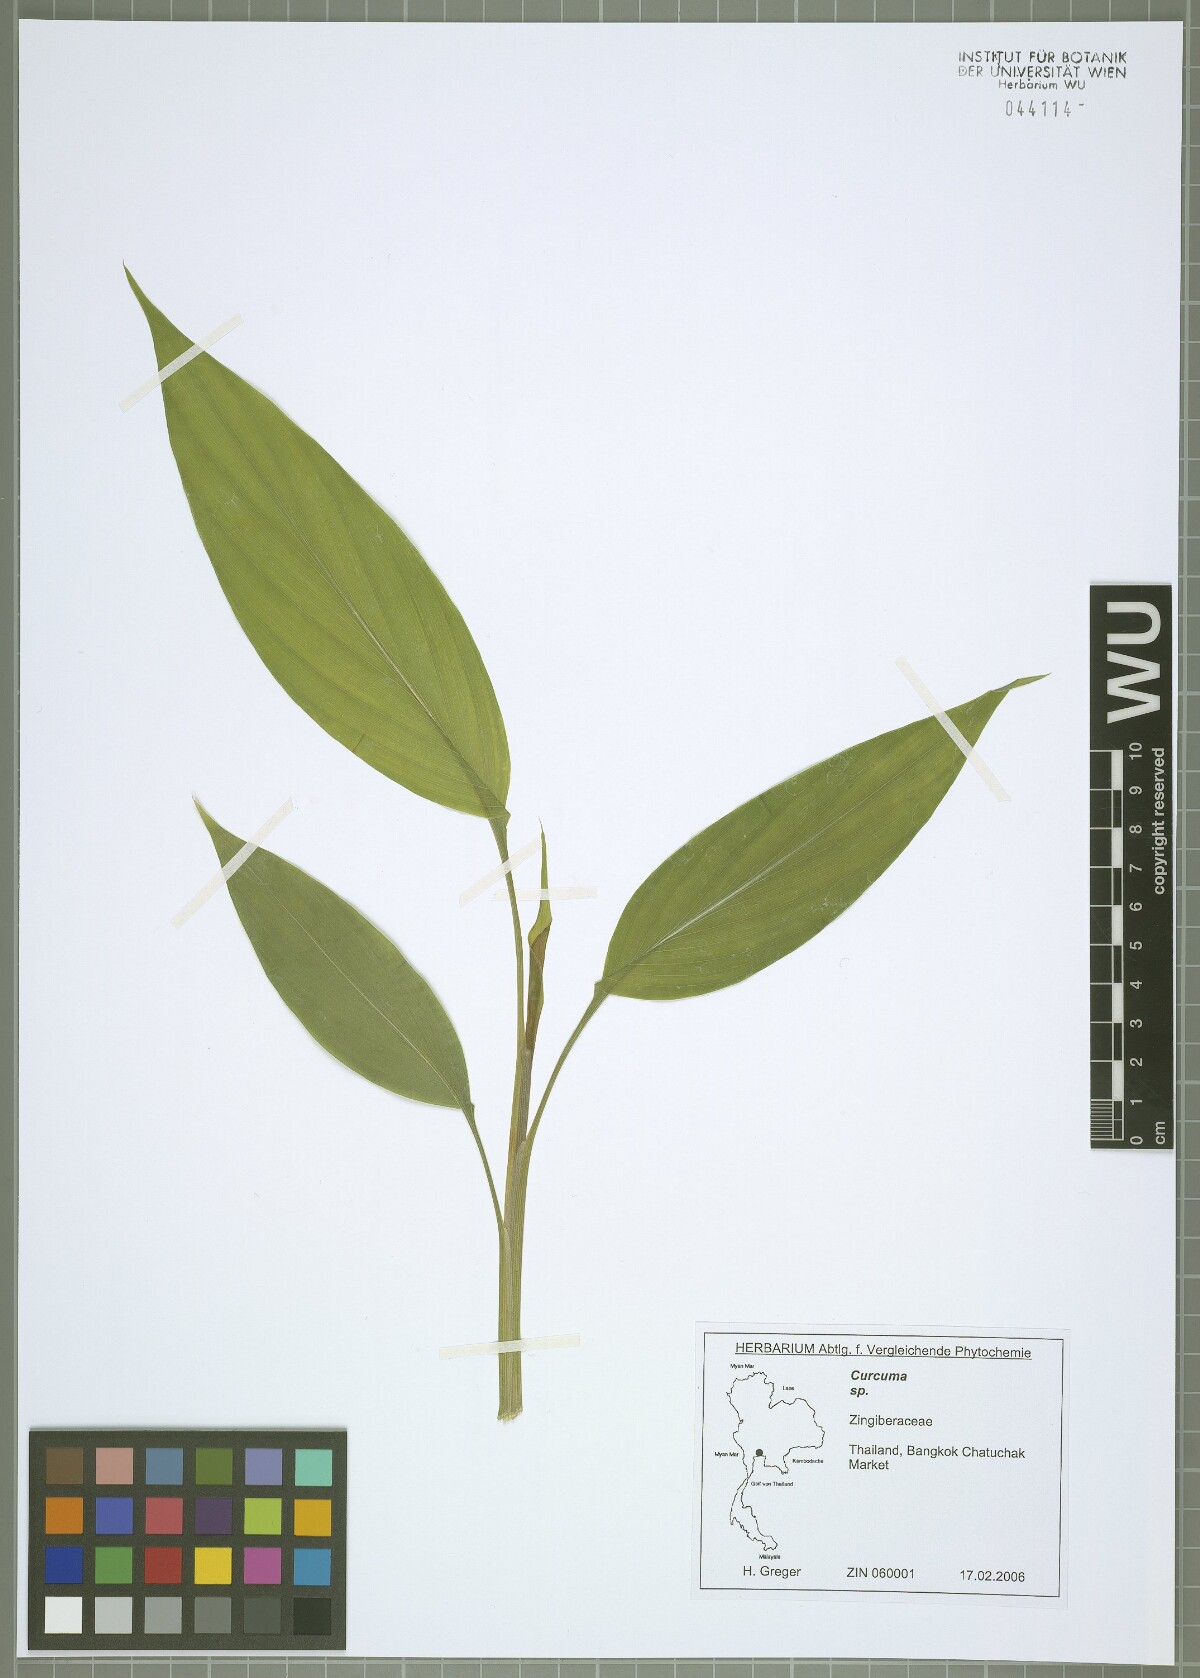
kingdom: Plantae
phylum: Tracheophyta
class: Liliopsida
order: Zingiberales
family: Zingiberaceae
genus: Curcuma
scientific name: Curcuma
